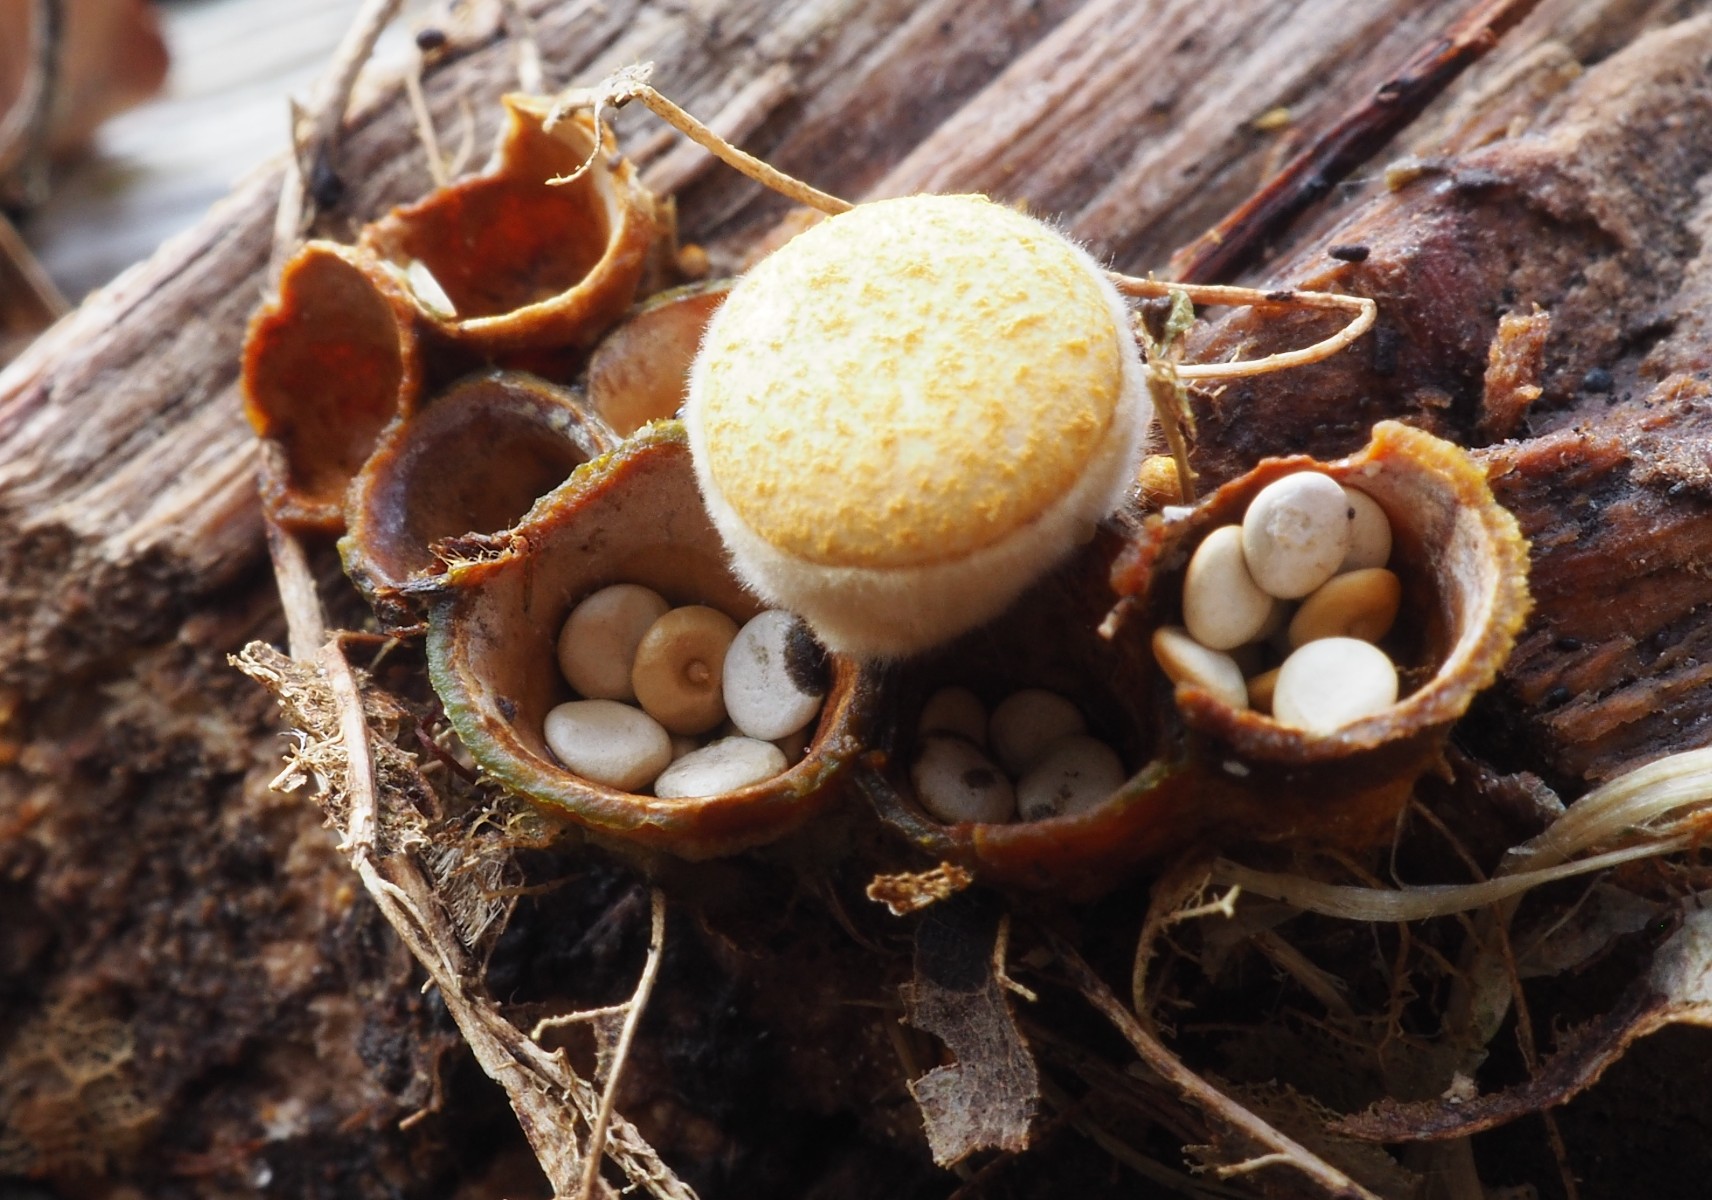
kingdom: Fungi
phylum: Basidiomycota
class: Agaricomycetes
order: Agaricales
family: Nidulariaceae
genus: Crucibulum
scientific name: Crucibulum crucibuliforme
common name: krukkesvamp
